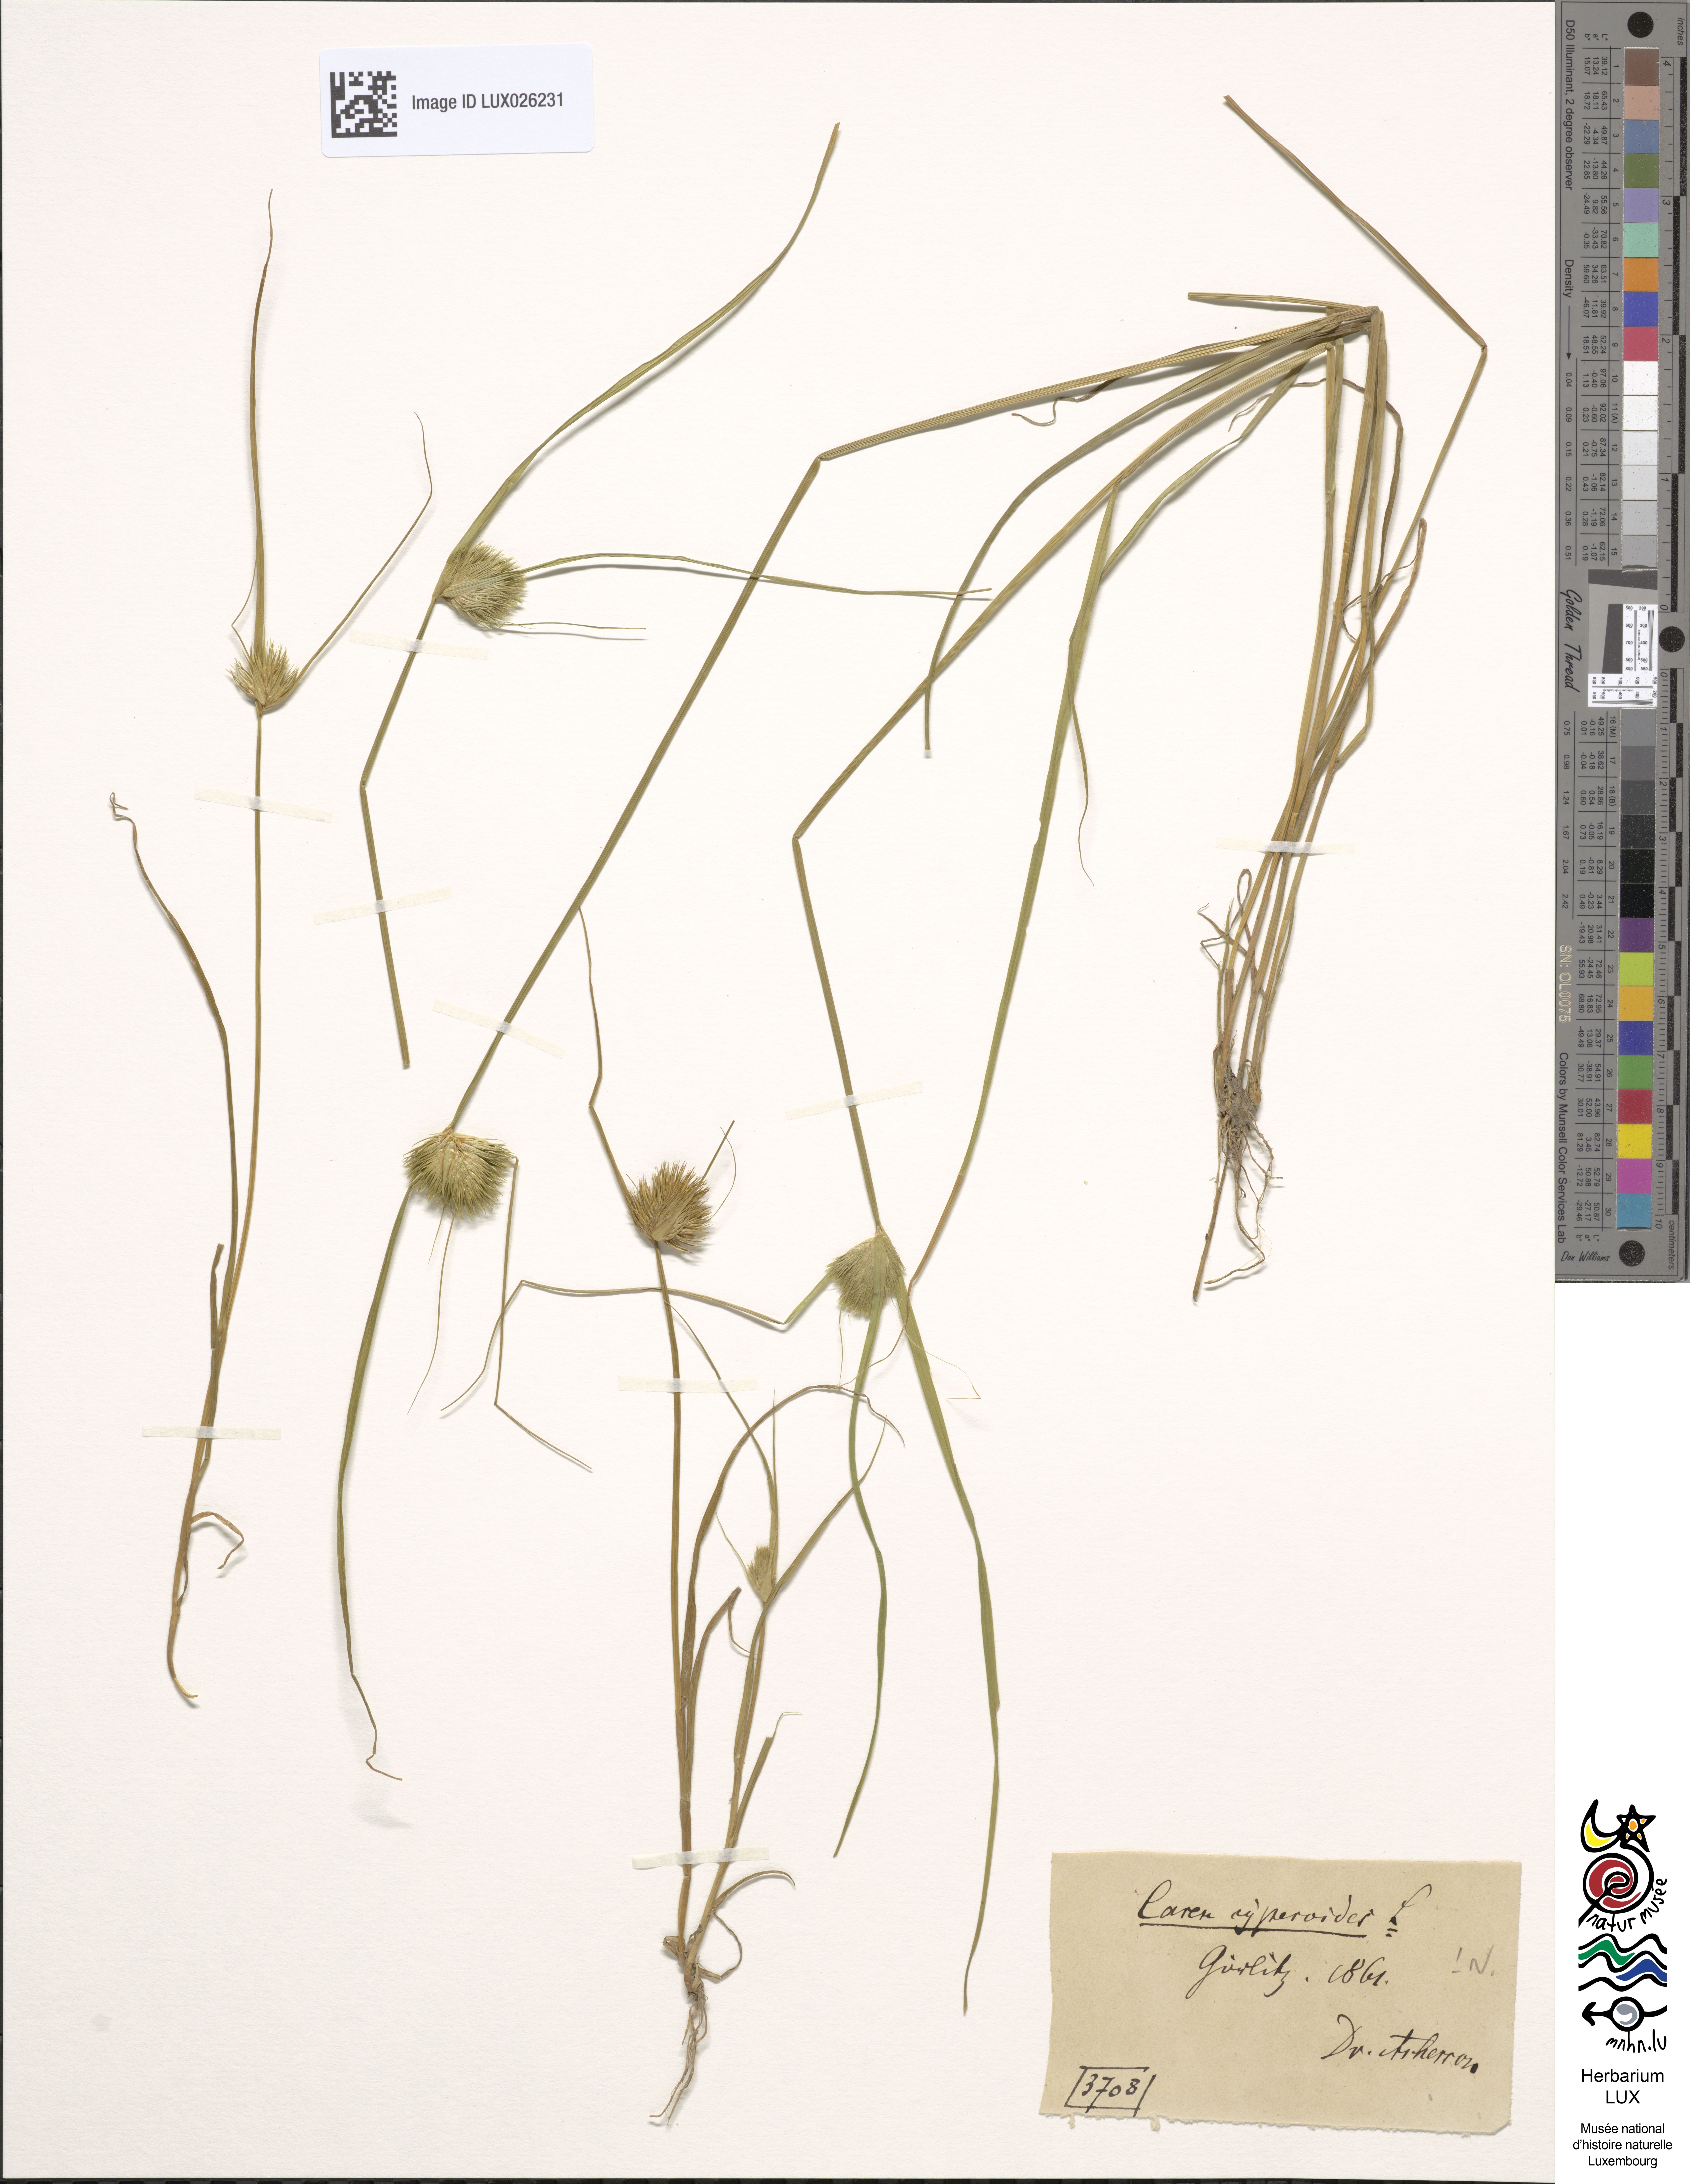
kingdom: Plantae
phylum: Tracheophyta
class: Liliopsida
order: Poales
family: Cyperaceae
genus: Carex
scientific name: Carex bohemica
